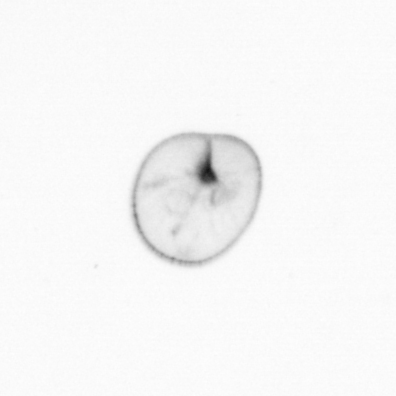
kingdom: Chromista
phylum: Myzozoa
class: Dinophyceae
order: Noctilucales
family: Noctilucaceae
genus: Noctiluca
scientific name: Noctiluca scintillans
